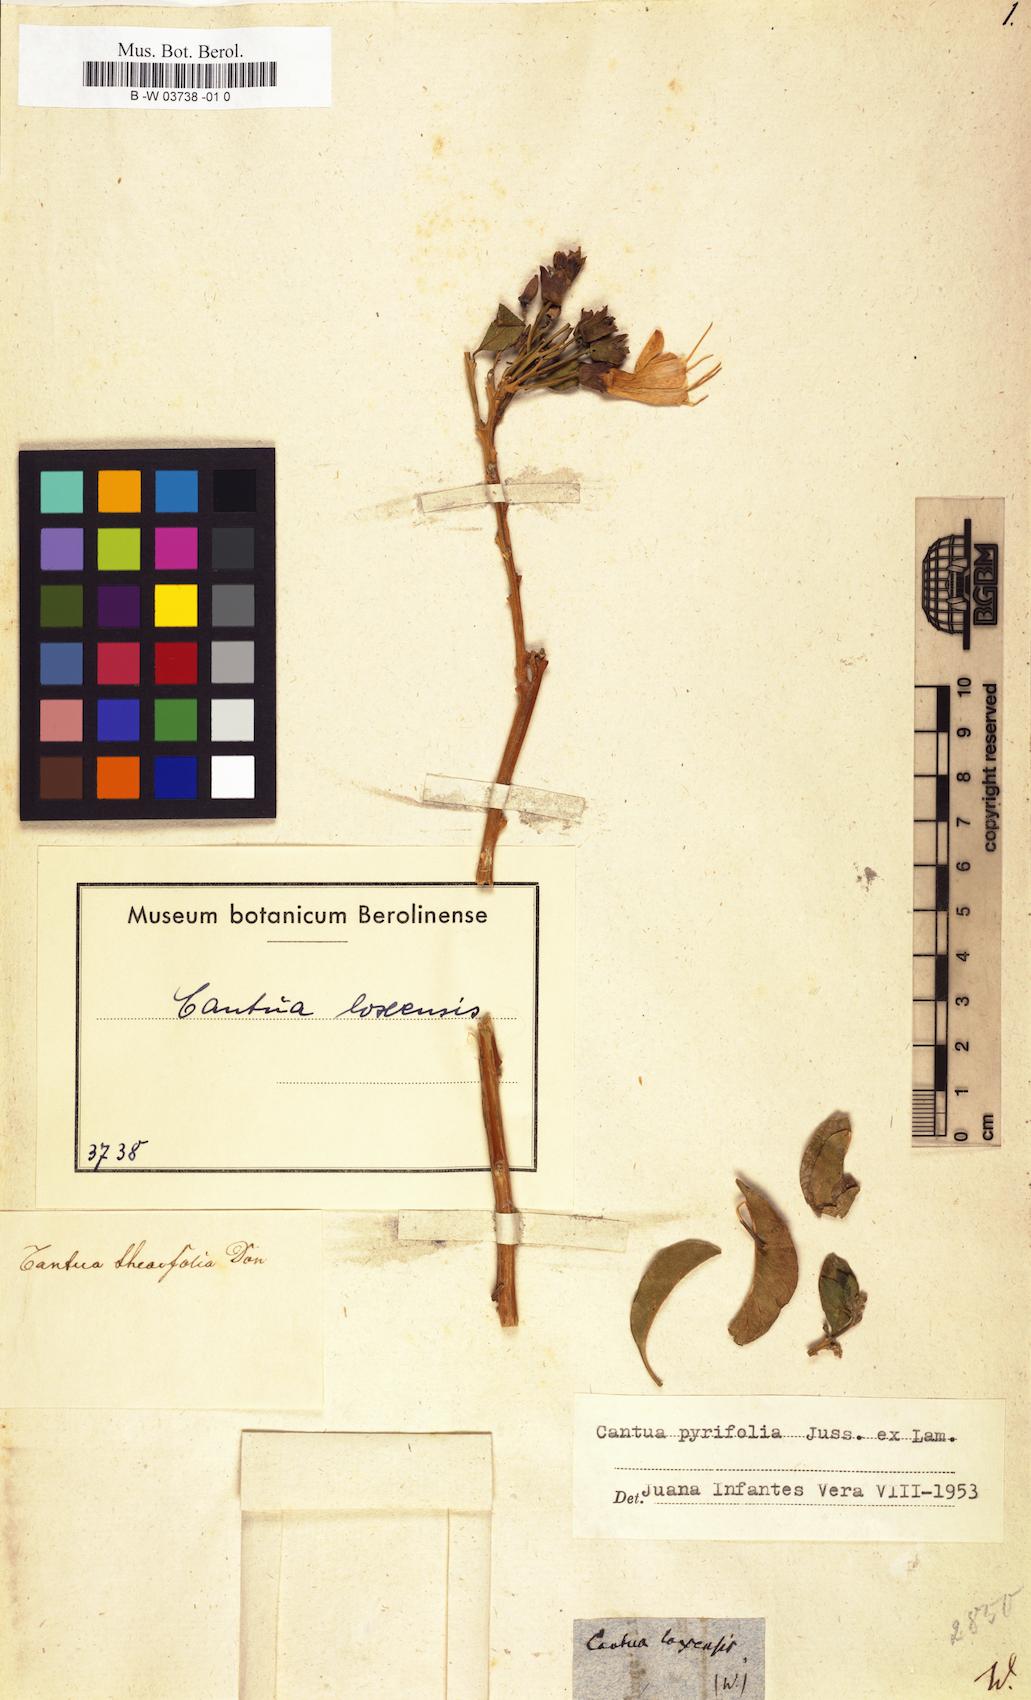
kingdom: Plantae
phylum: Tracheophyta
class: Magnoliopsida
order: Ericales
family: Polemoniaceae
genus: Cantua
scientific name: Cantua pyrifolia
